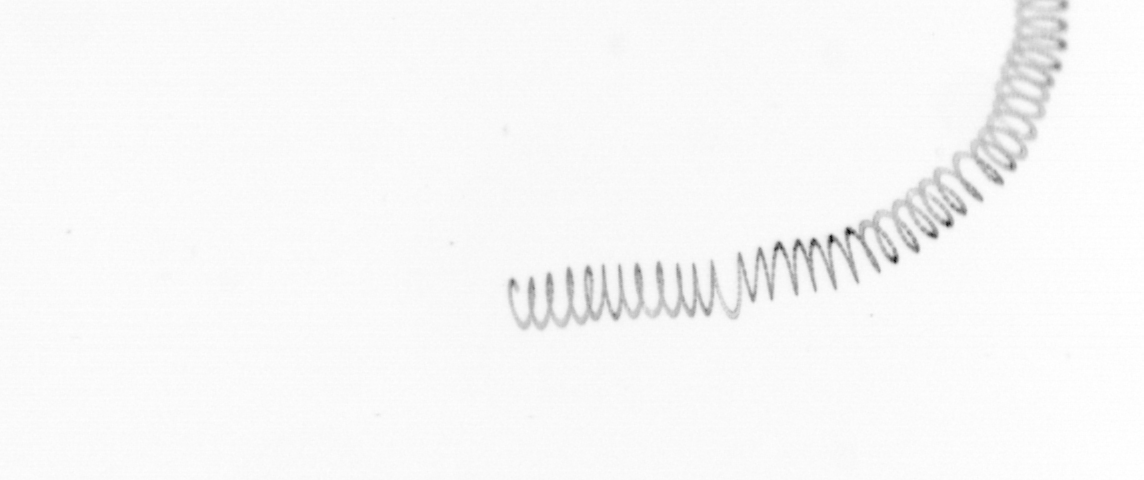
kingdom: Chromista
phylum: Ochrophyta
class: Bacillariophyceae
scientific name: Bacillariophyceae
